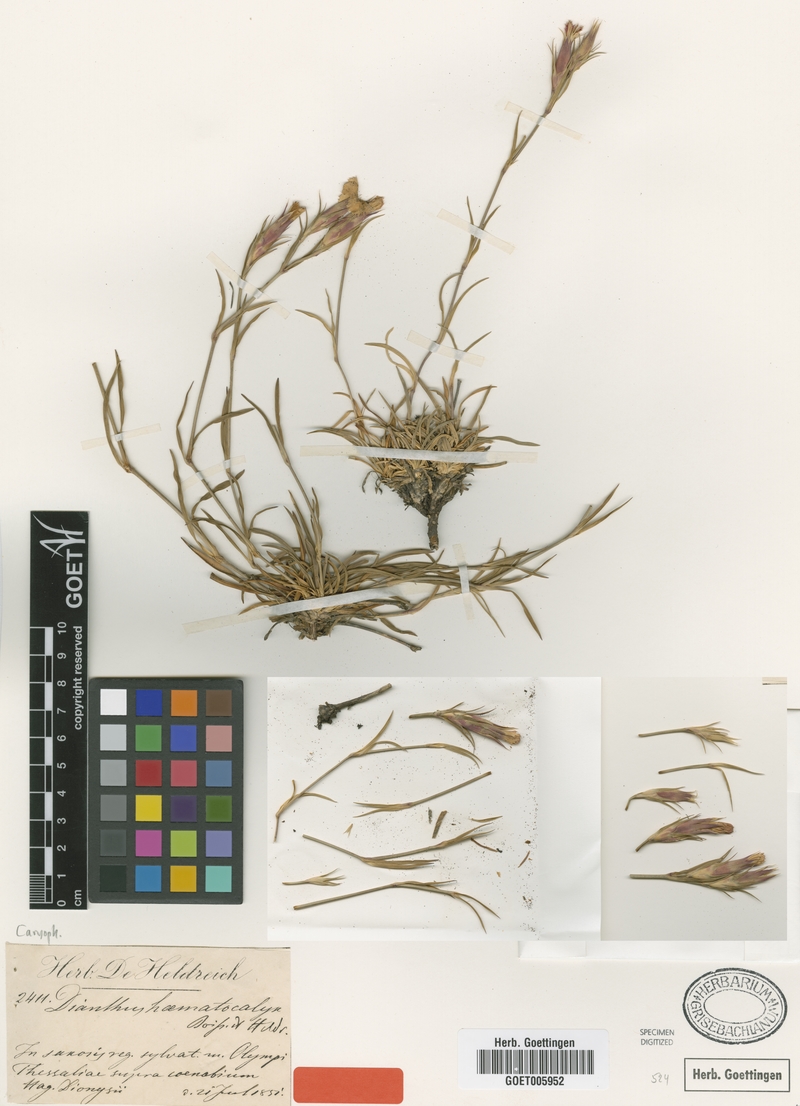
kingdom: Plantae
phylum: Tracheophyta
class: Magnoliopsida
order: Caryophyllales
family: Caryophyllaceae
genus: Dianthus
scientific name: Dianthus haematocalyx
